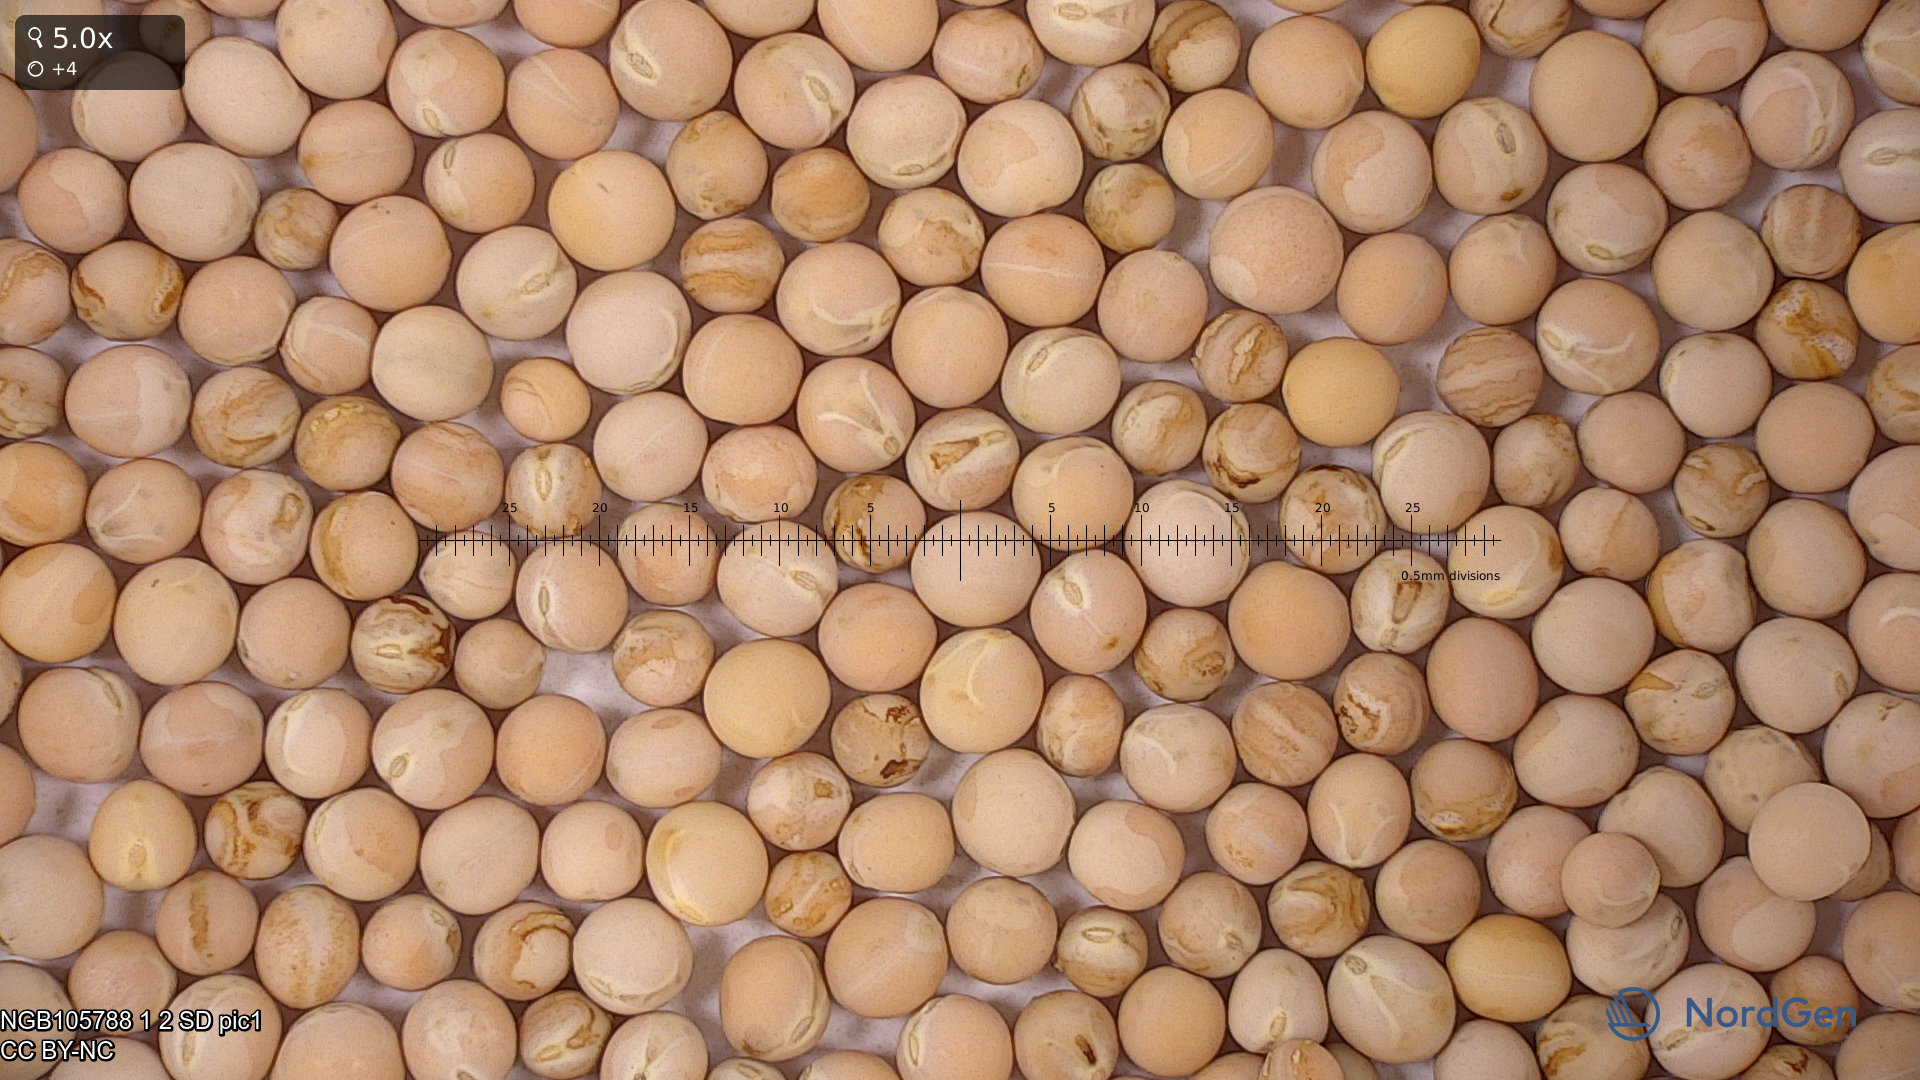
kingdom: Plantae
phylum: Tracheophyta
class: Magnoliopsida
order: Fabales
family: Fabaceae
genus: Lathyrus
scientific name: Lathyrus oleraceus
